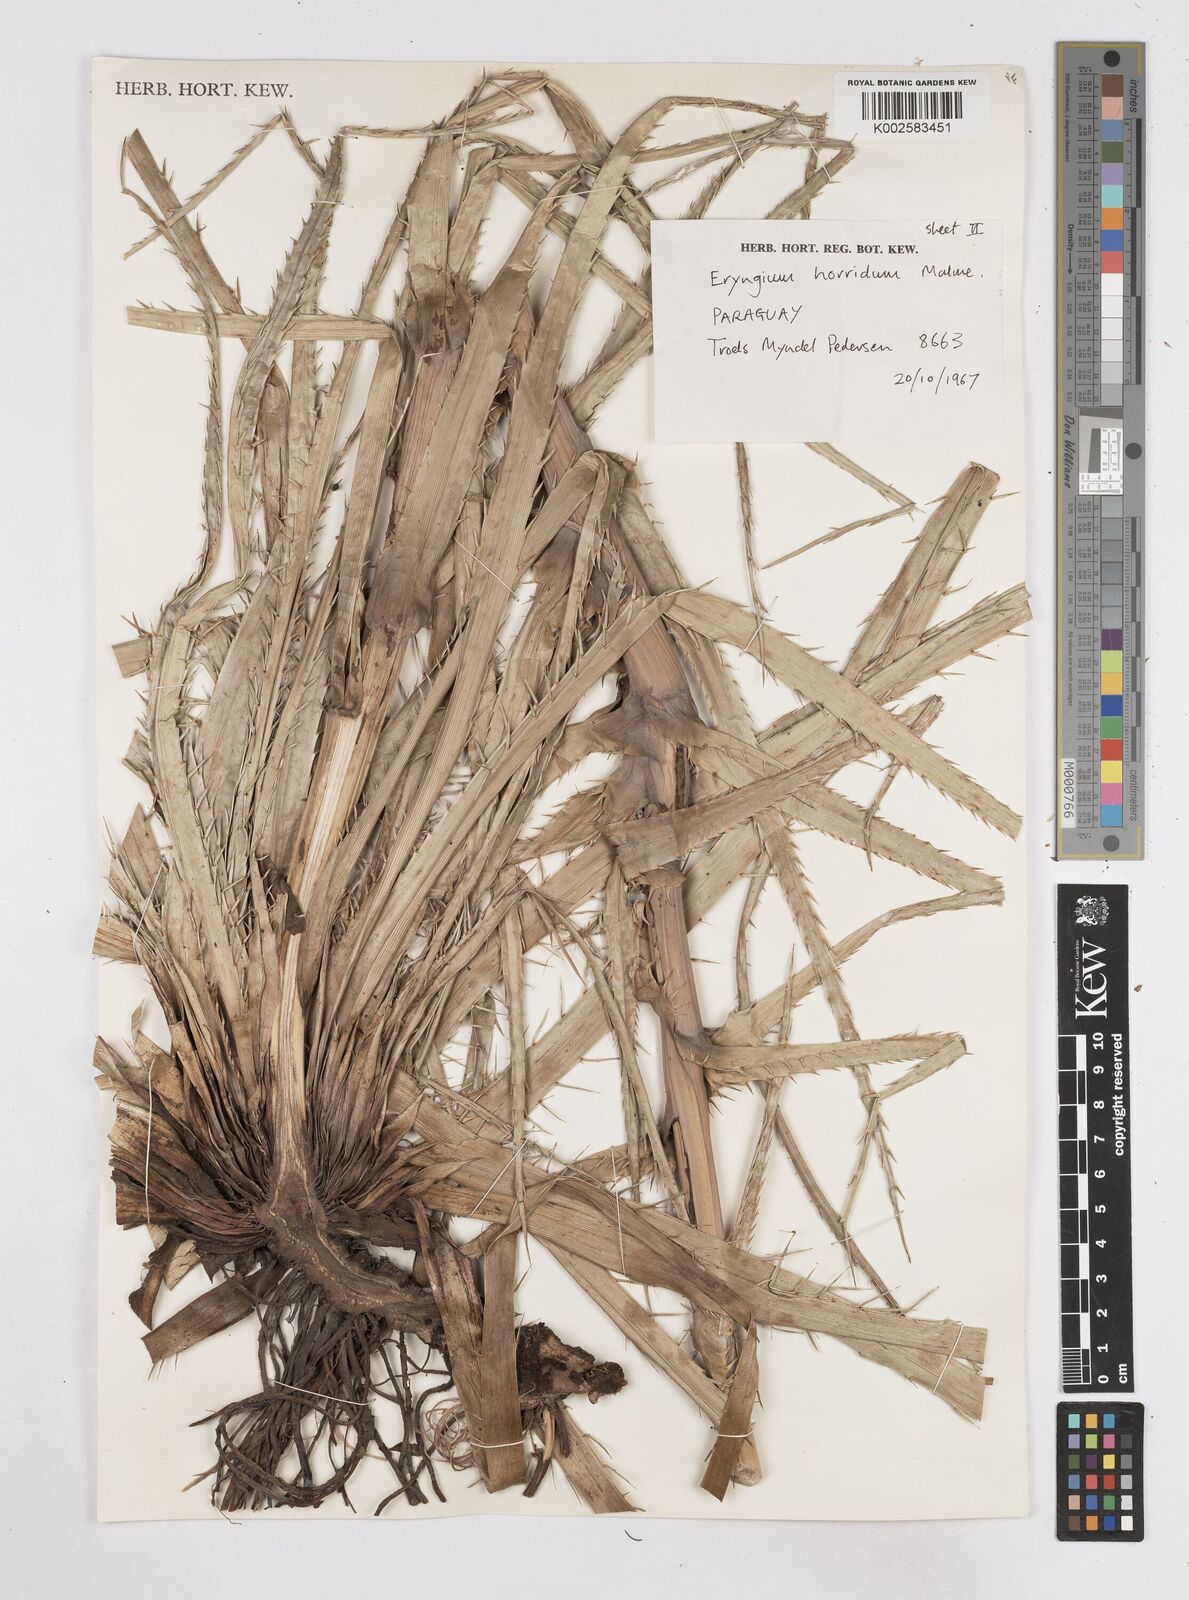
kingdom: Plantae
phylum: Tracheophyta
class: Magnoliopsida
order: Apiales
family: Apiaceae
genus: Eryngium
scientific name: Eryngium horridum
